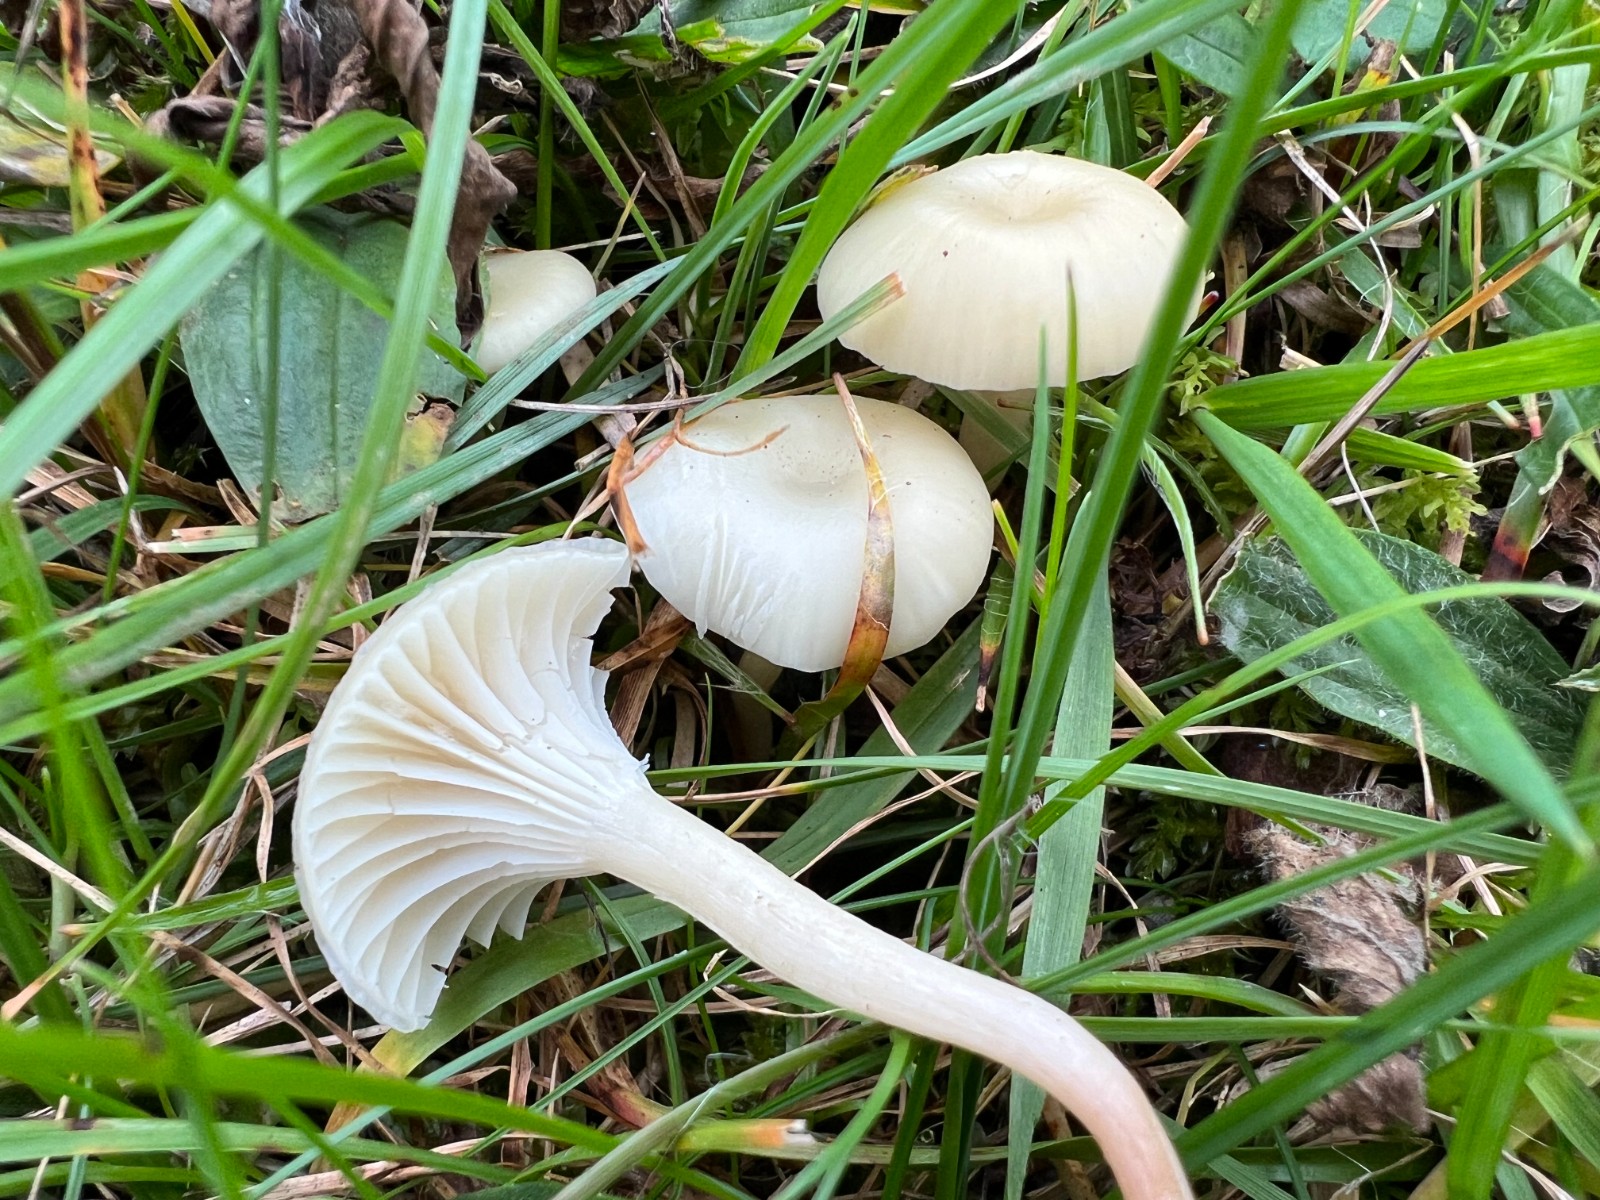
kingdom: Fungi
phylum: Basidiomycota
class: Agaricomycetes
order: Agaricales
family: Hygrophoraceae
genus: Cuphophyllus
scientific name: Cuphophyllus russocoriaceus
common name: ruslæder-vokshat
